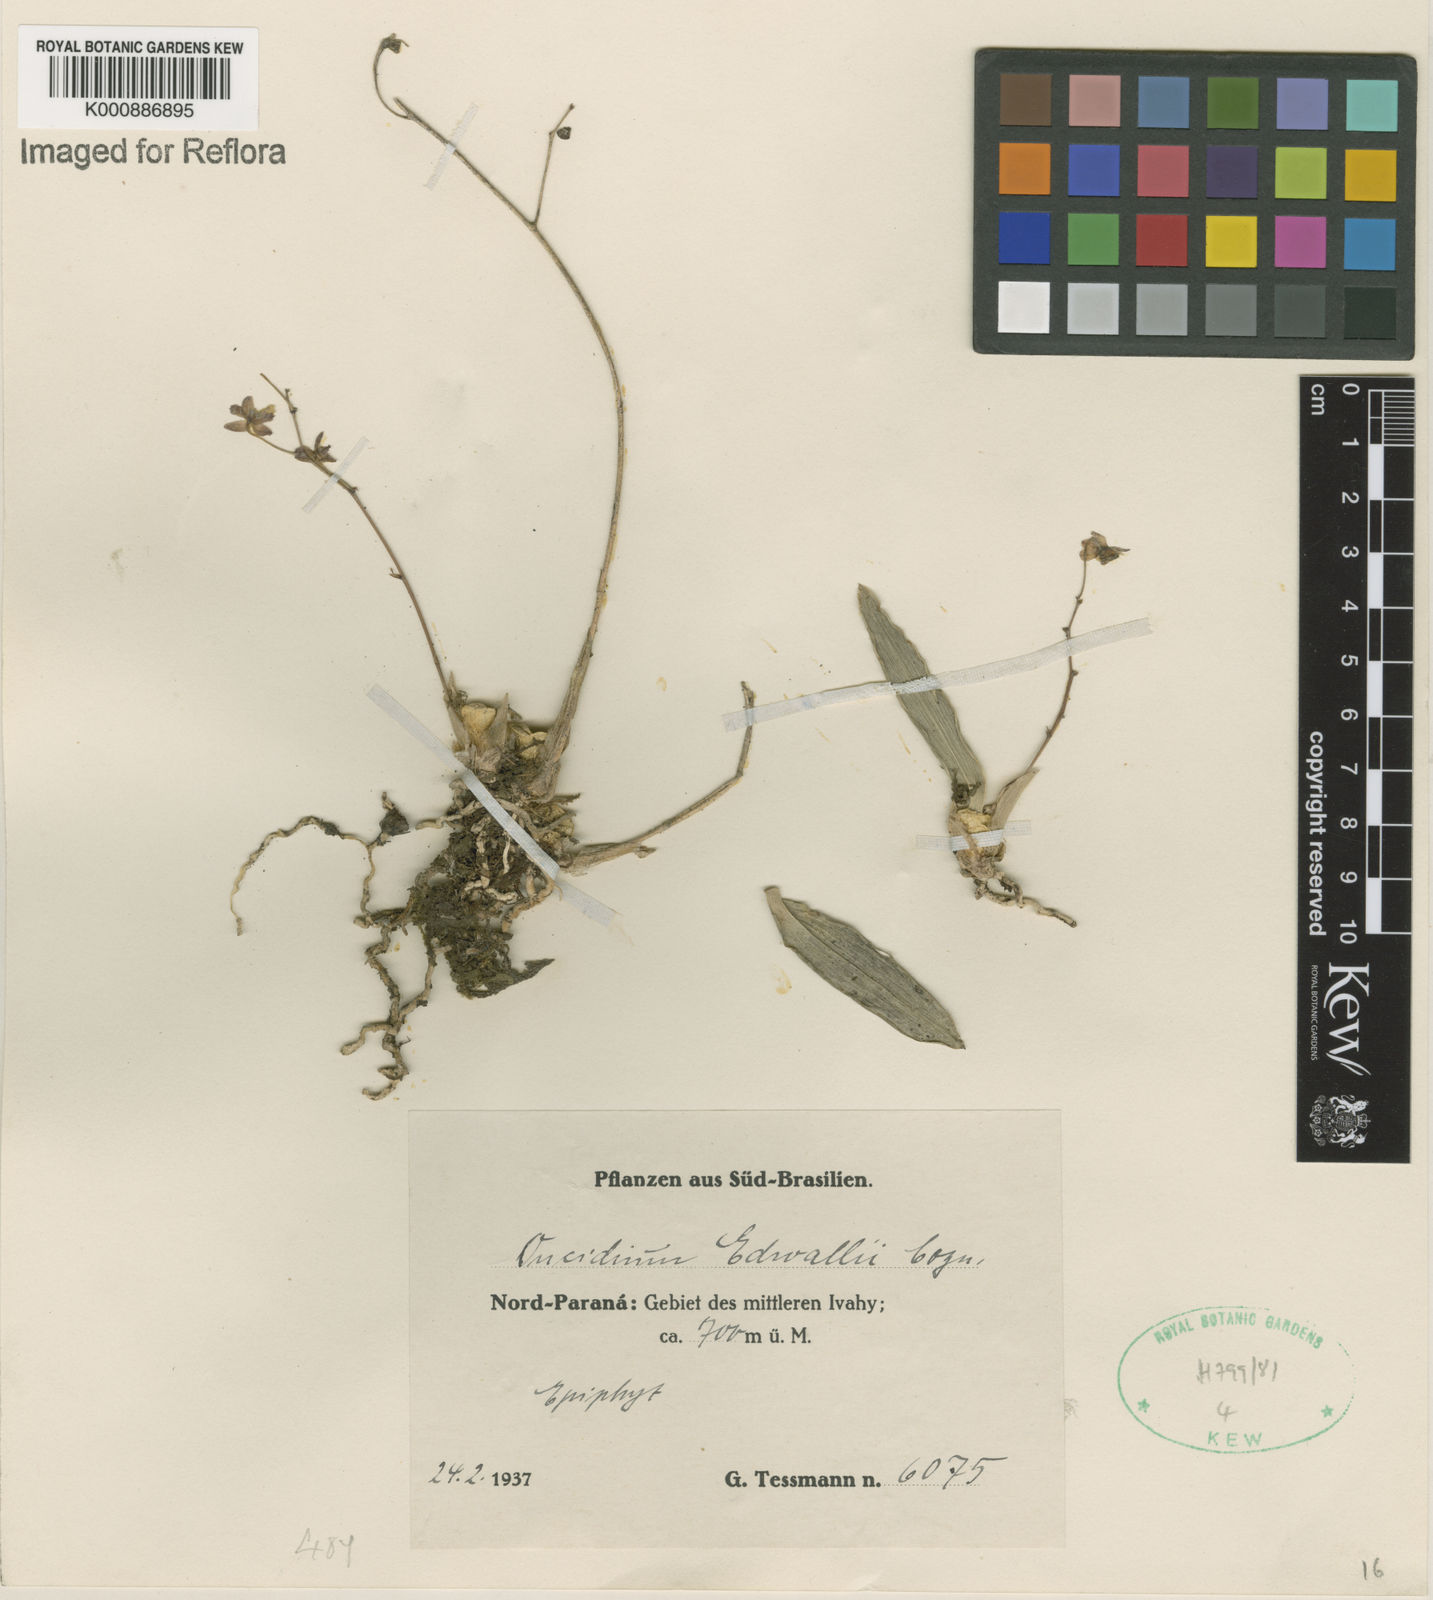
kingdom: Plantae
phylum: Tracheophyta
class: Liliopsida
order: Asparagales
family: Orchidaceae
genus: Grandiphyllum
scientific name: Grandiphyllum hians
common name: Mule-ear orchid
